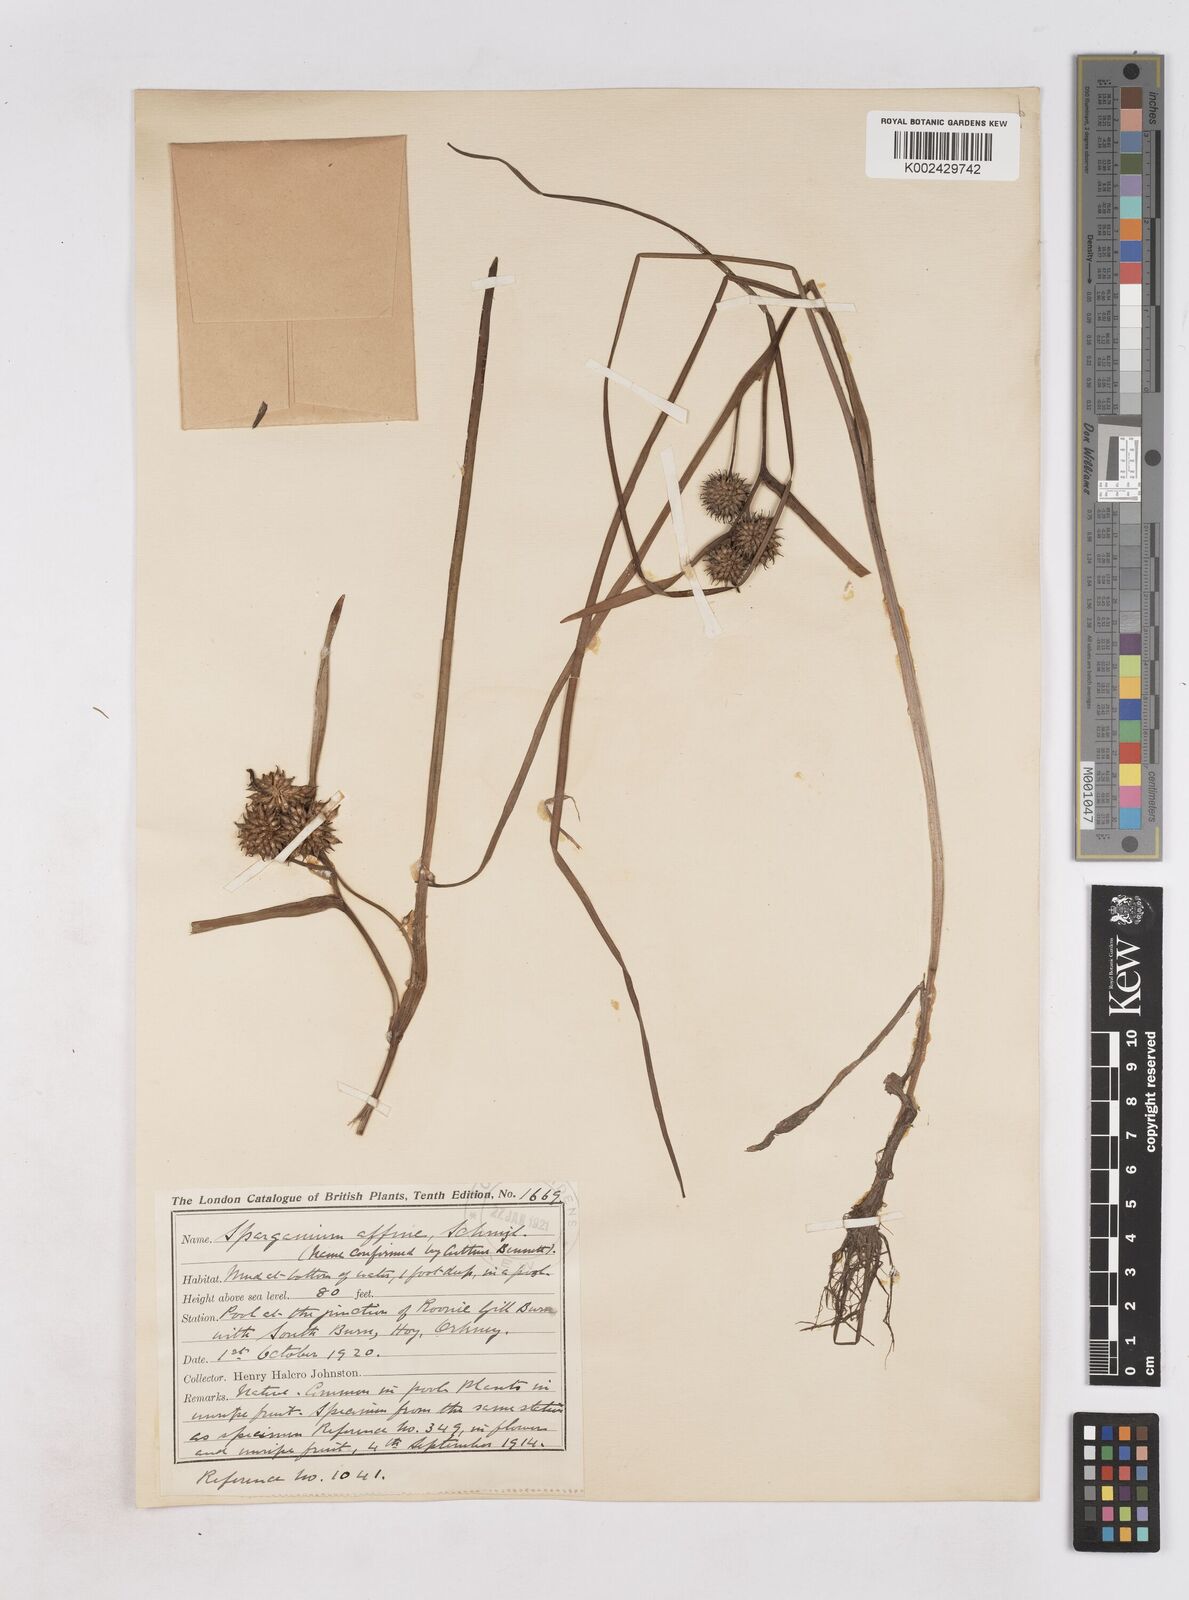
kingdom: Plantae
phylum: Tracheophyta
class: Liliopsida
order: Poales
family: Typhaceae
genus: Sparganium
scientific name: Sparganium angustifolium
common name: Floating bur-reed
